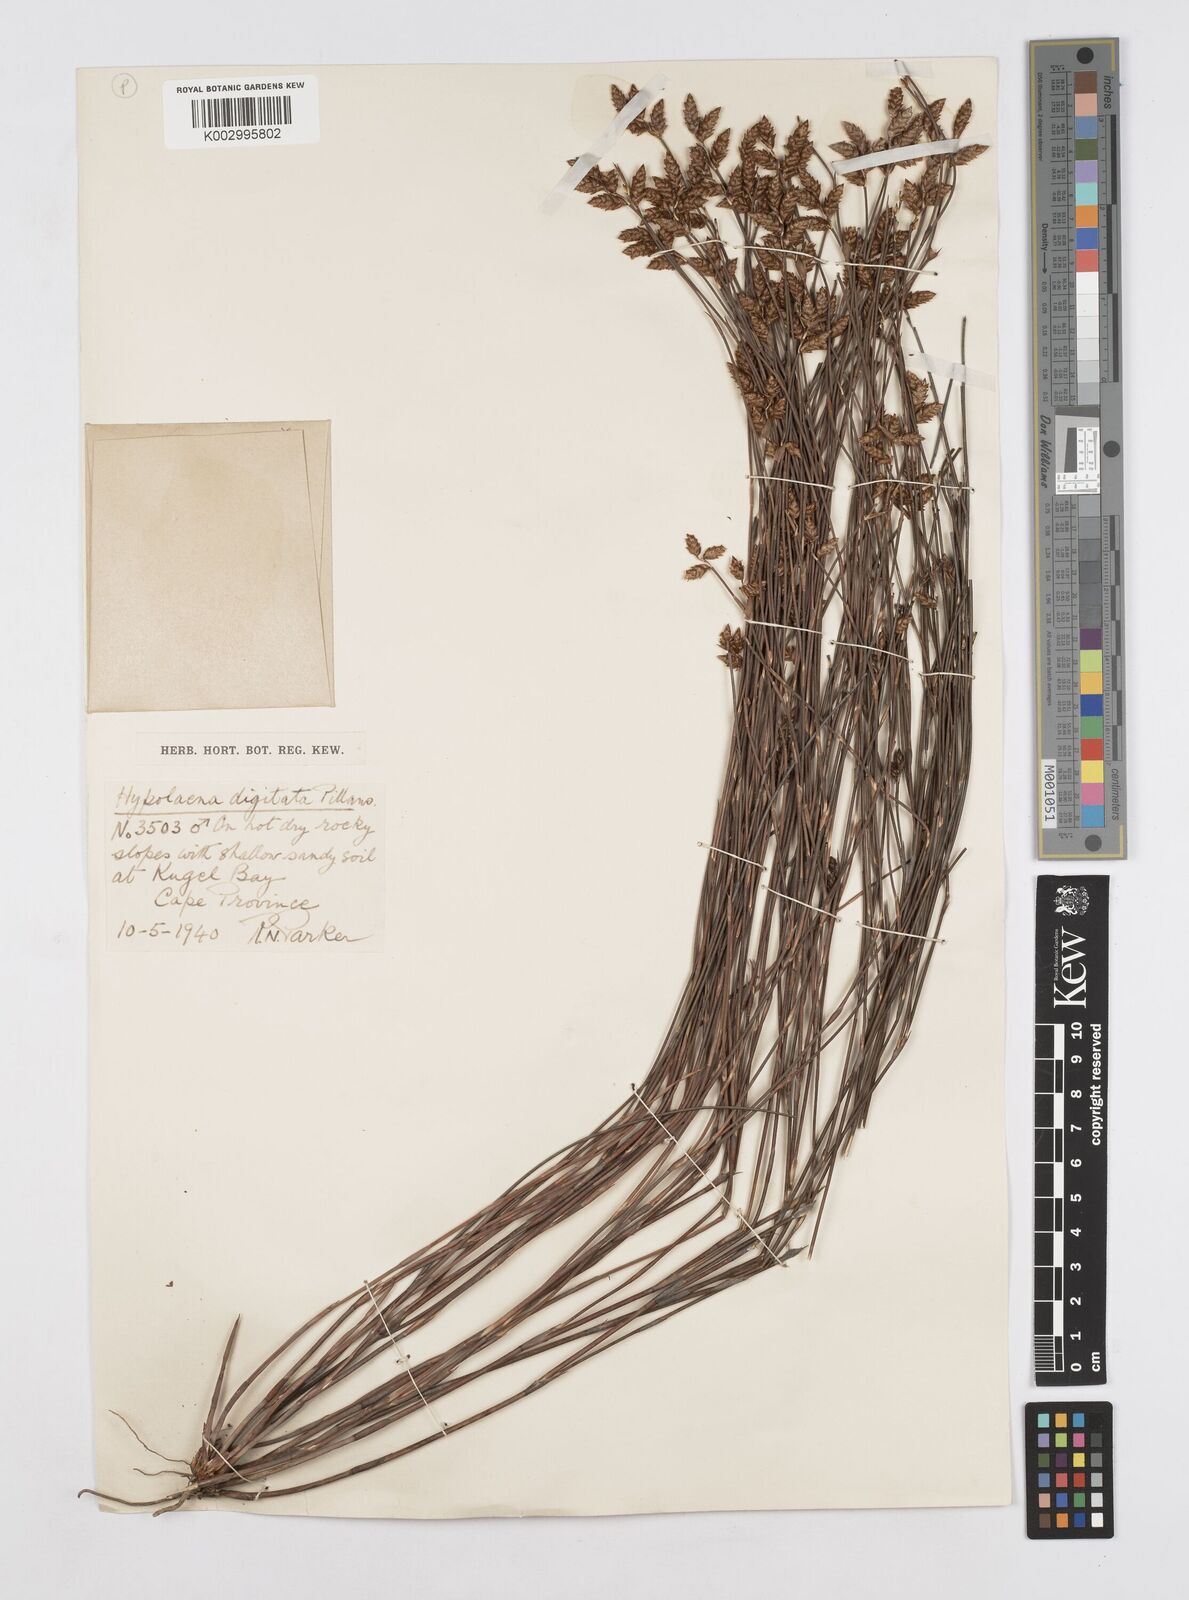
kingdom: Plantae
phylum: Tracheophyta
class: Liliopsida
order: Poales
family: Restionaceae
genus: Mastersiella
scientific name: Mastersiella digitata
